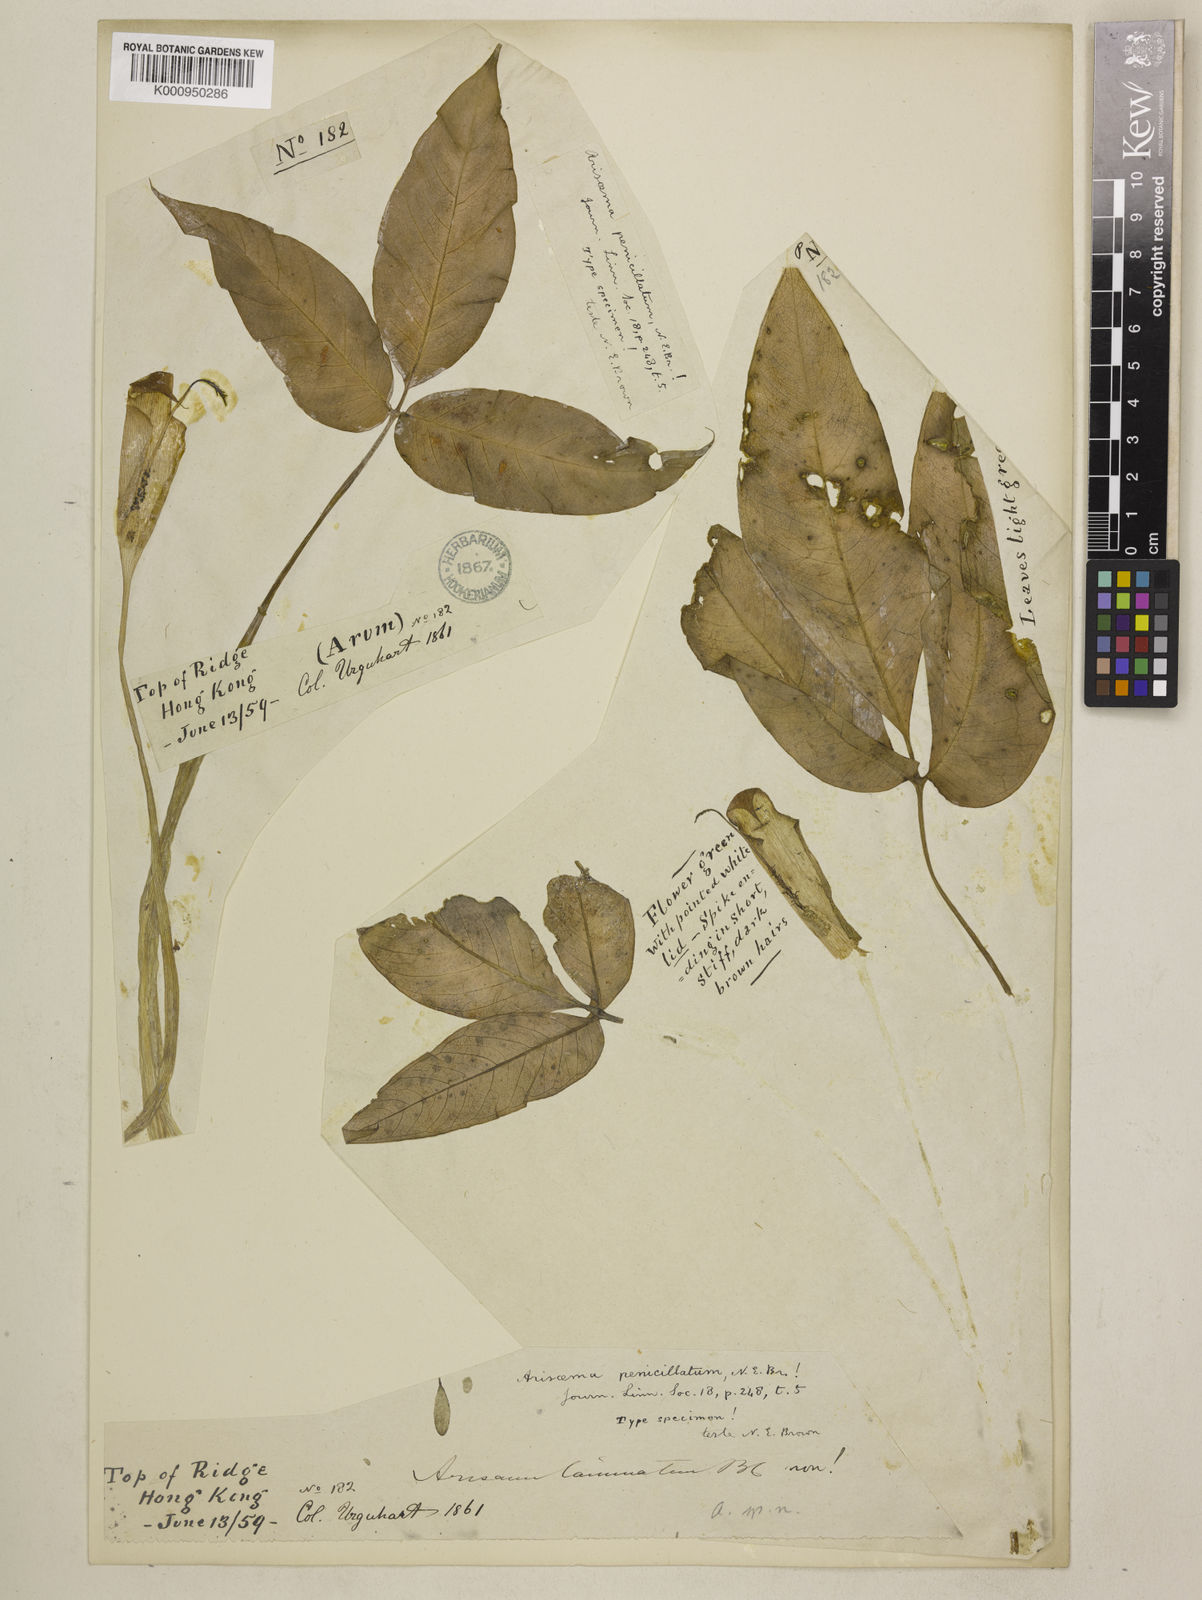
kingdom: Plantae
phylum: Tracheophyta
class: Liliopsida
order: Alismatales
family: Araceae
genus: Arisaema
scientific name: Arisaema penicillatum
